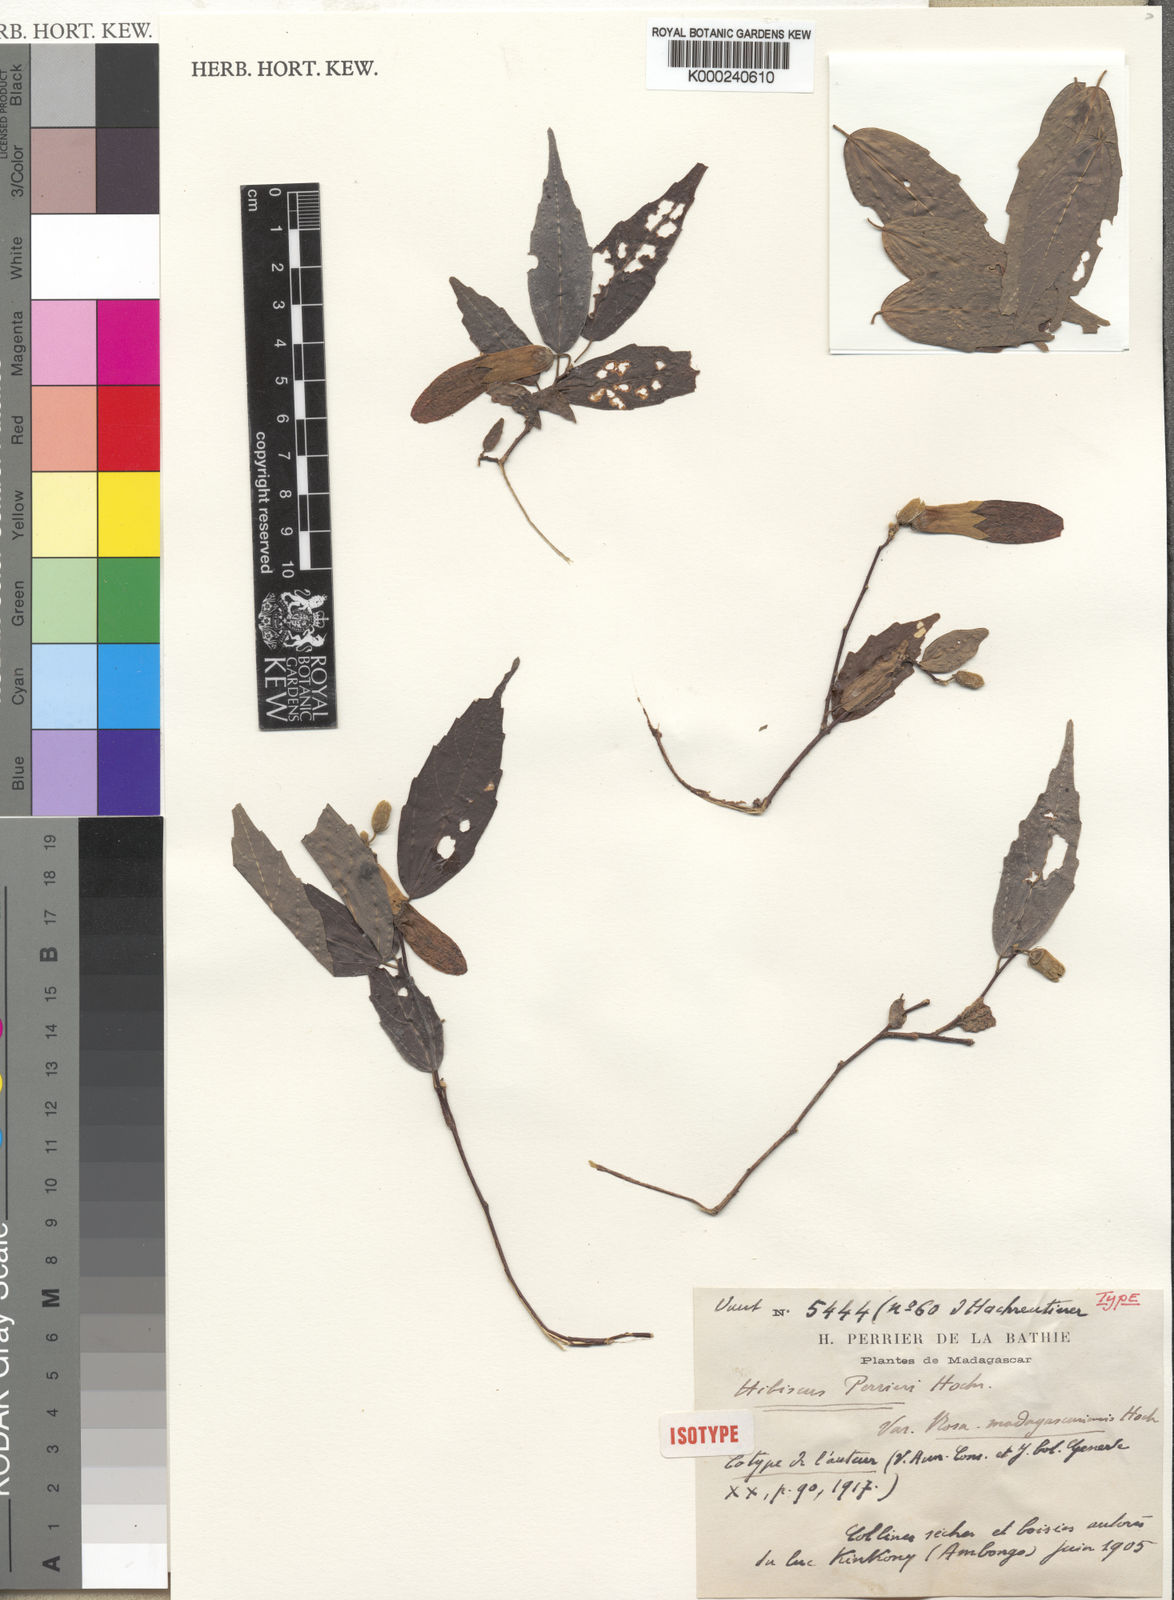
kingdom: Plantae
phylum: Tracheophyta
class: Magnoliopsida
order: Malvales
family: Malvaceae
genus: Hibiscus
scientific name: Hibiscus perrieri
